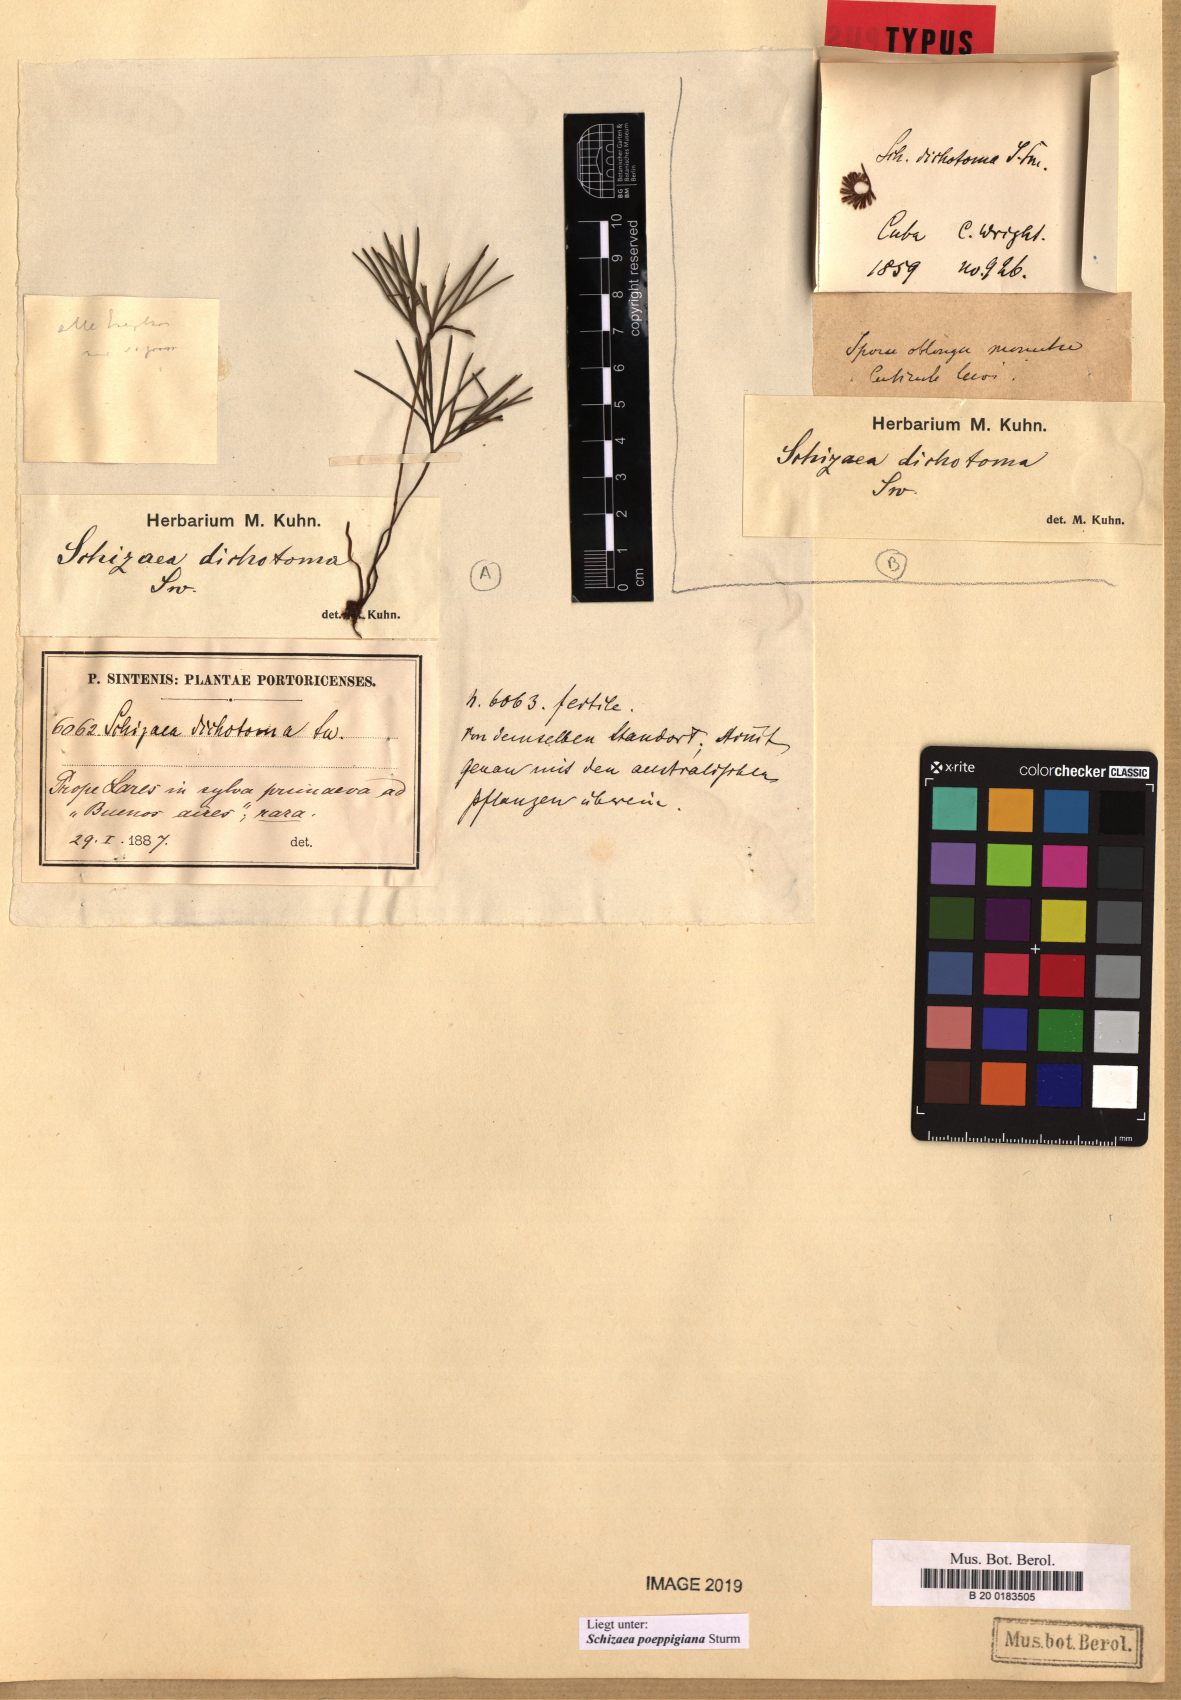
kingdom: Plantae
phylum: Tracheophyta
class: Polypodiopsida
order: Schizaeales
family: Schizaeaceae
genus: Schizaea
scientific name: Schizaea poeppigiana
